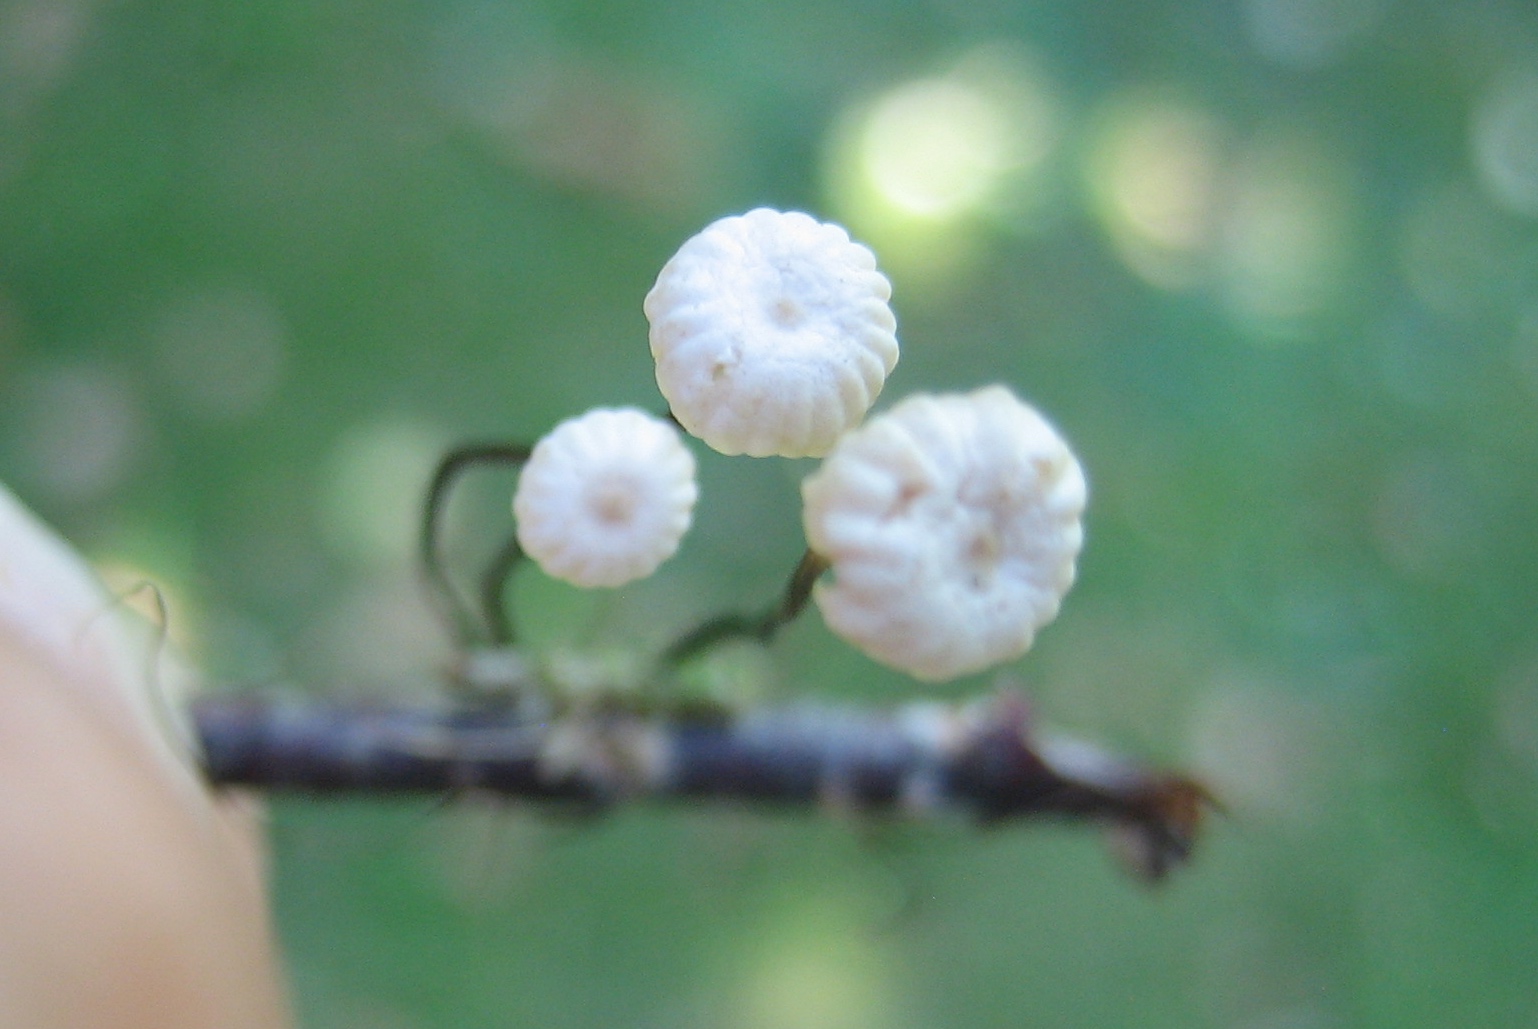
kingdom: Fungi
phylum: Basidiomycota
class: Agaricomycetes
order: Agaricales
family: Marasmiaceae
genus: Marasmius
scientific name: Marasmius rotula
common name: hjul-bruskhat
